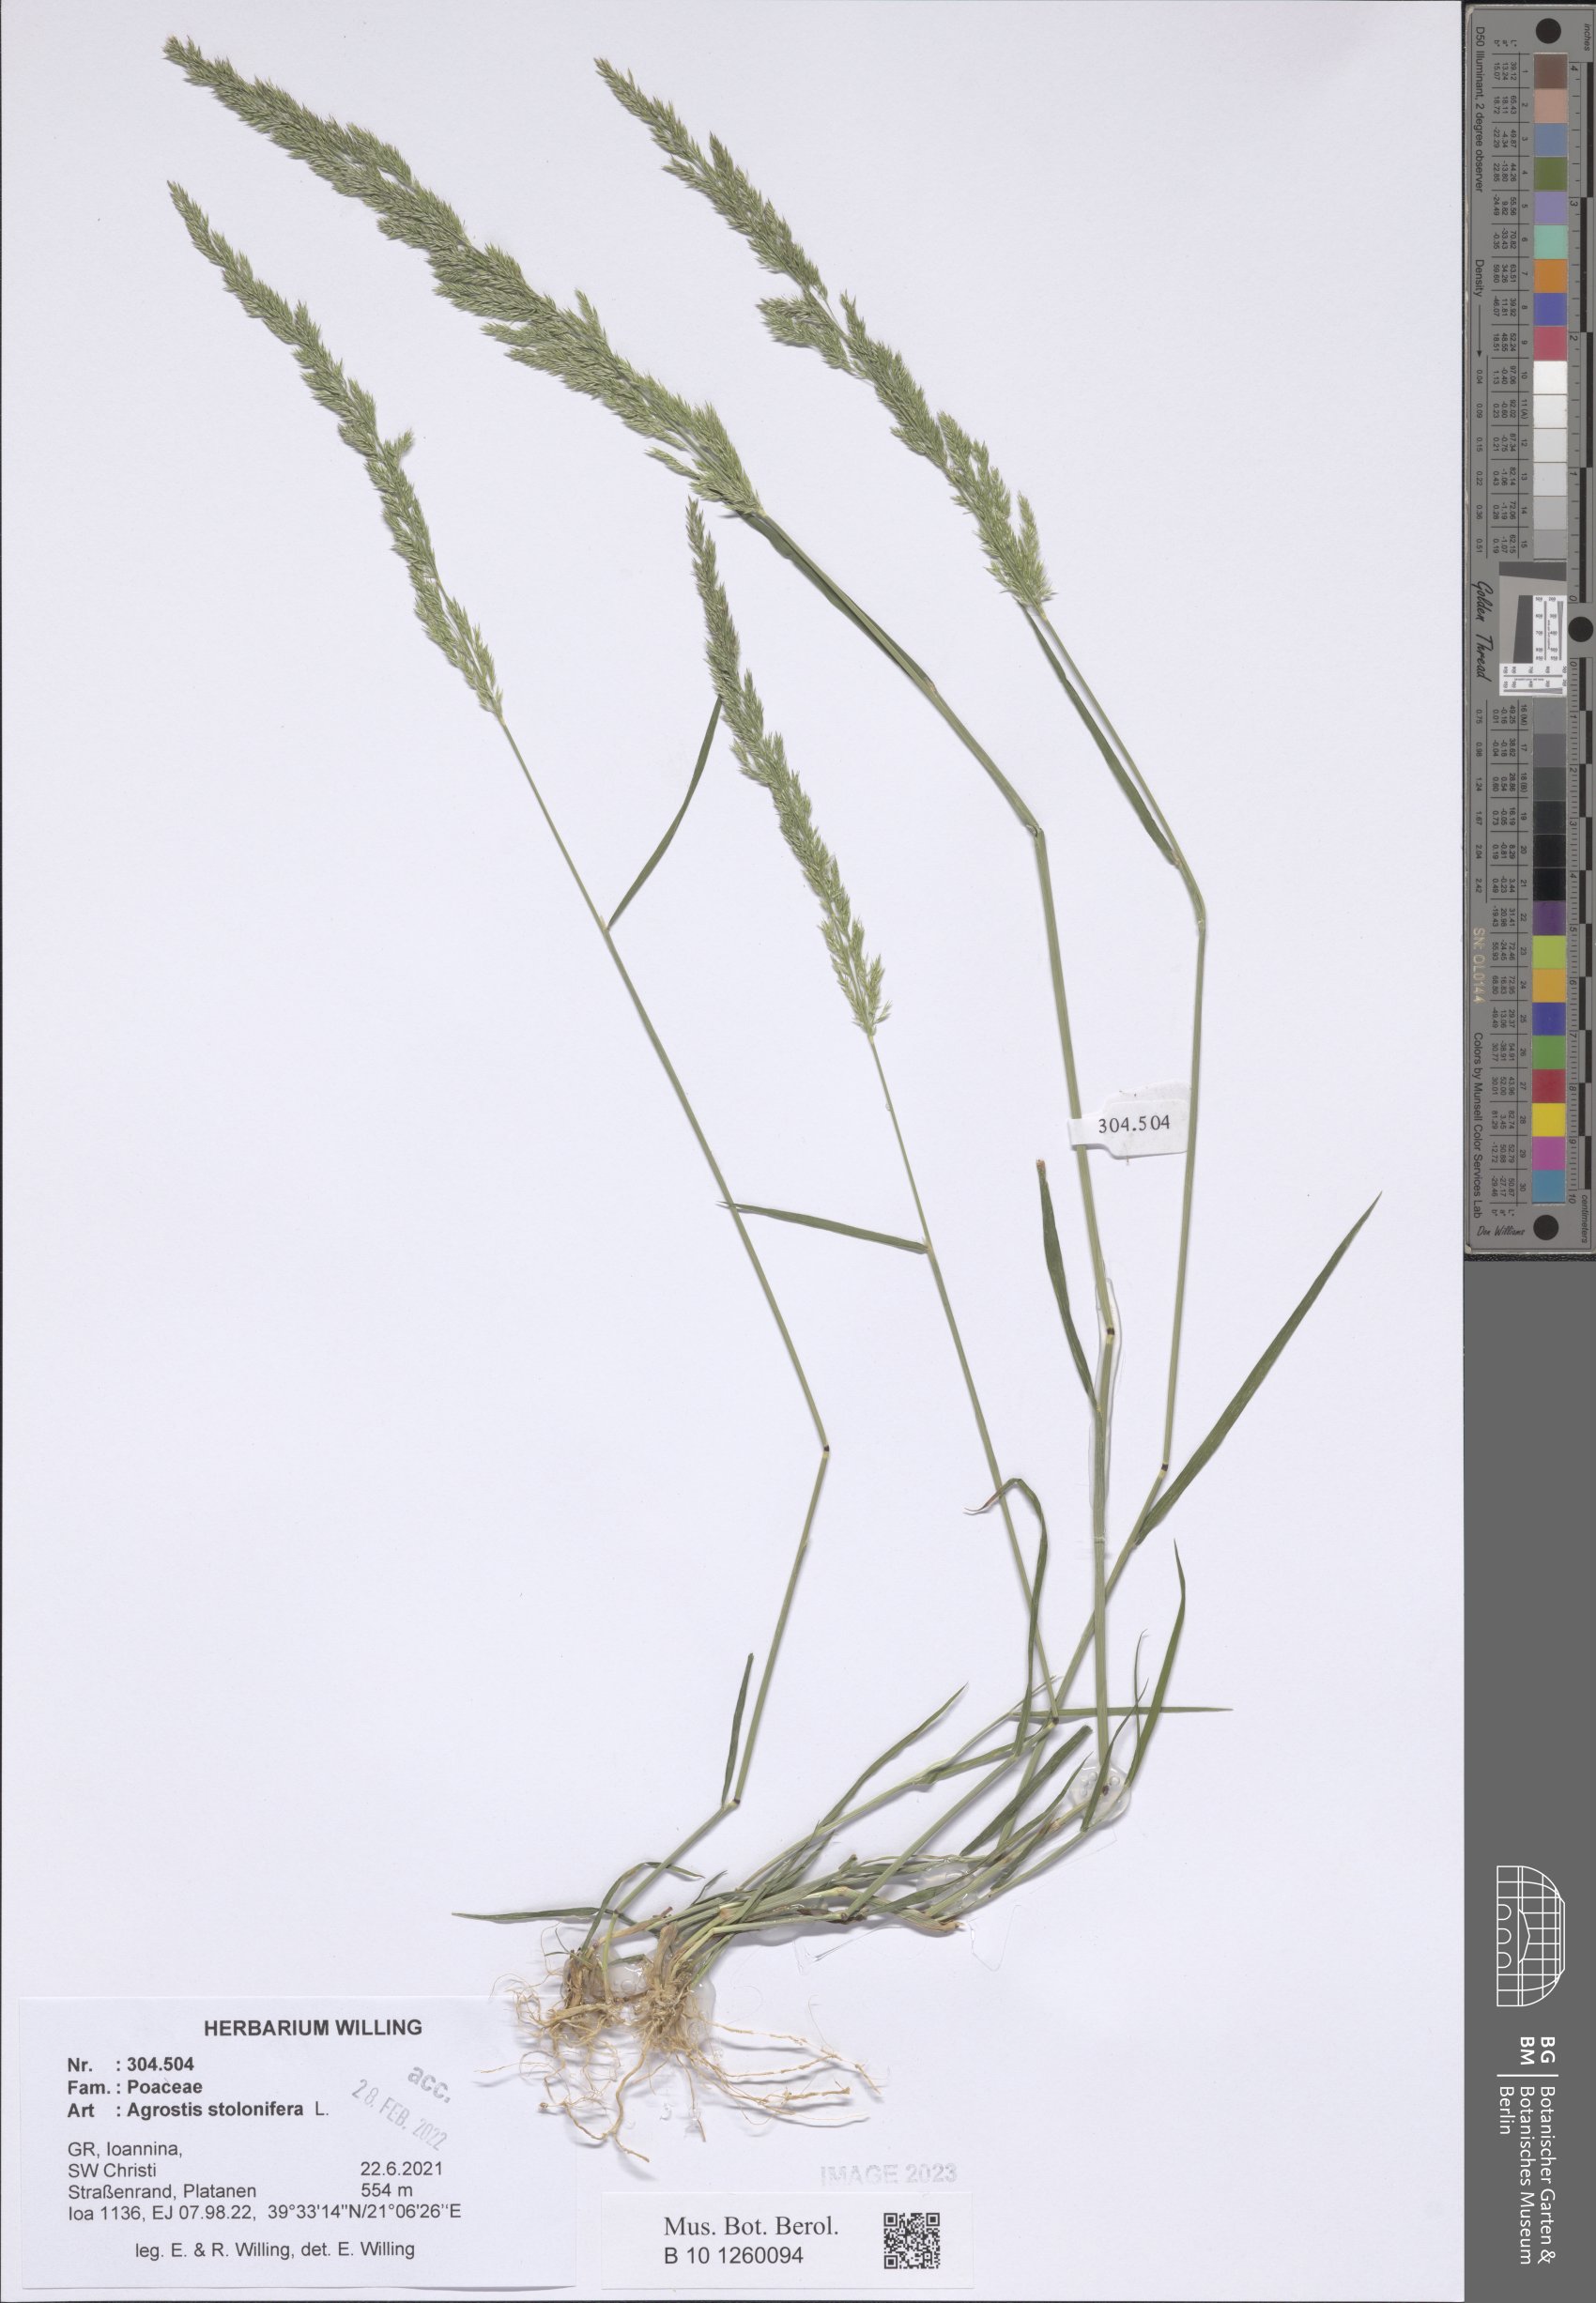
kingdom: Plantae
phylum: Tracheophyta
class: Liliopsida
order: Poales
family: Poaceae
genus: Agrostis
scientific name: Agrostis stolonifera
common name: Creeping bentgrass
